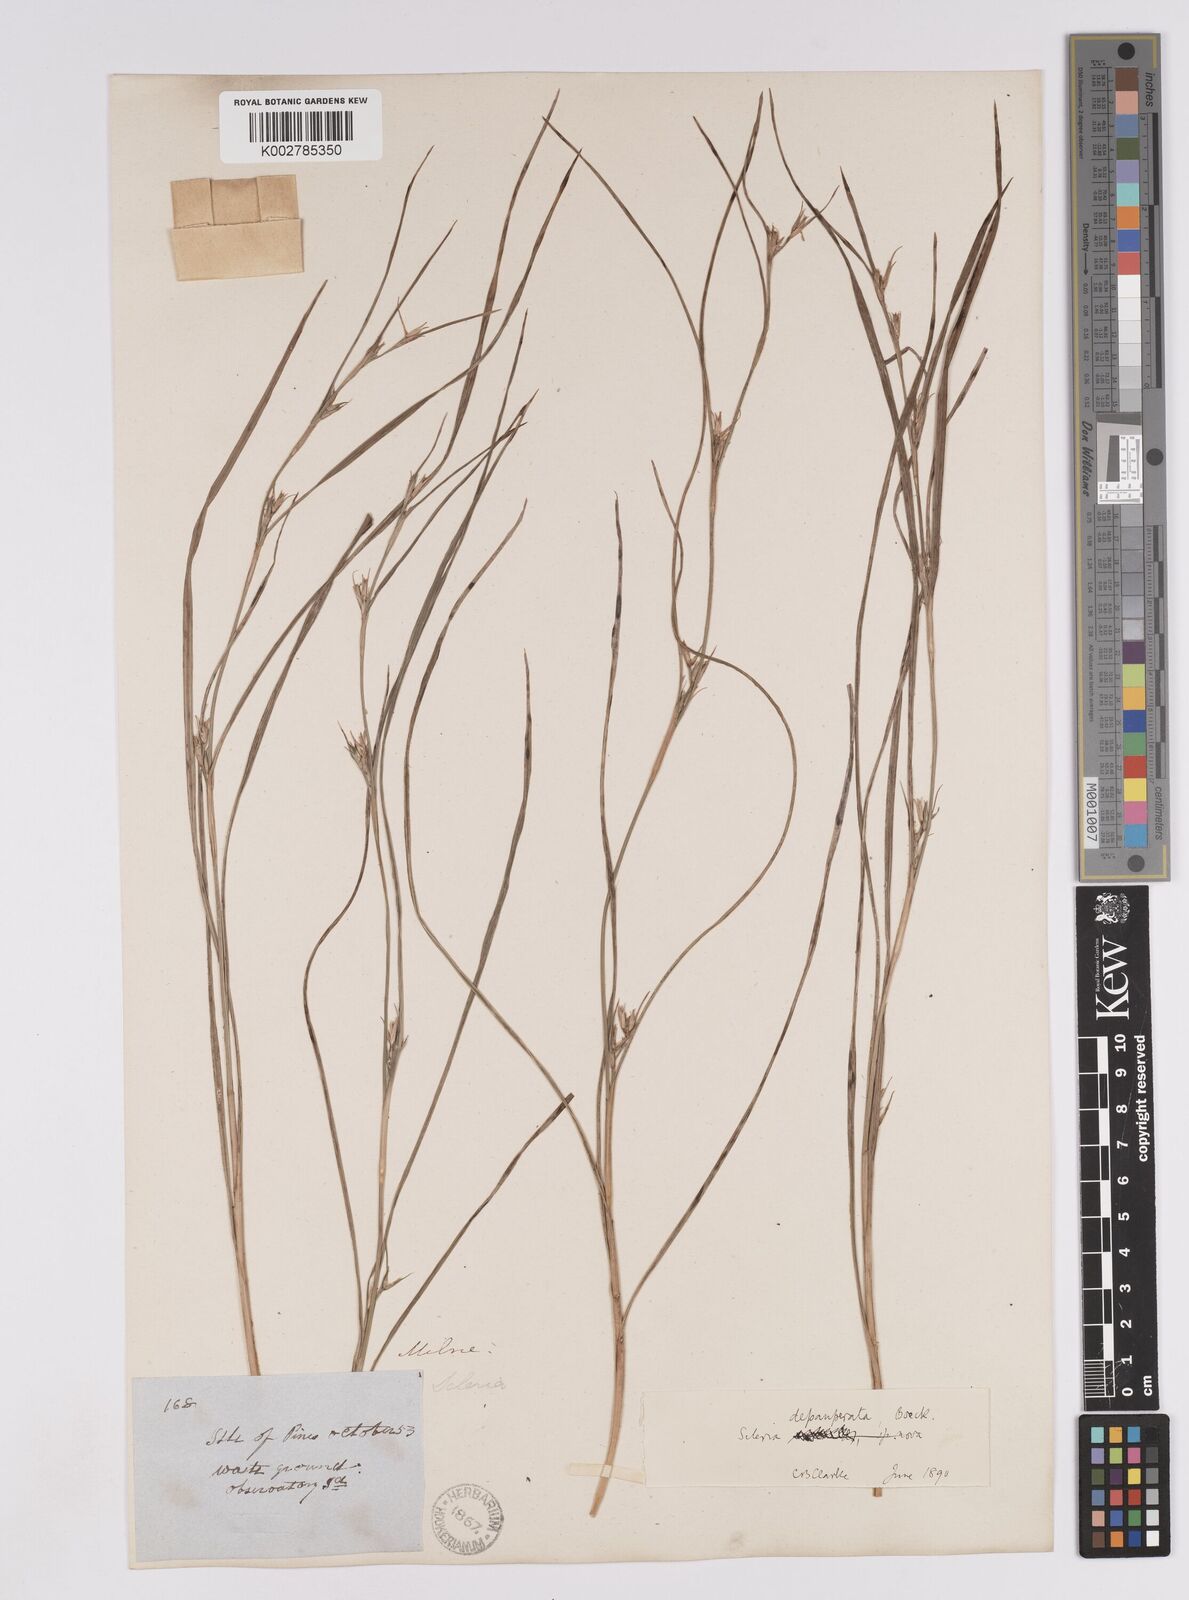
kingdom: Plantae
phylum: Tracheophyta
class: Liliopsida
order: Poales
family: Cyperaceae
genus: Scleria
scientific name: Scleria depauperata
